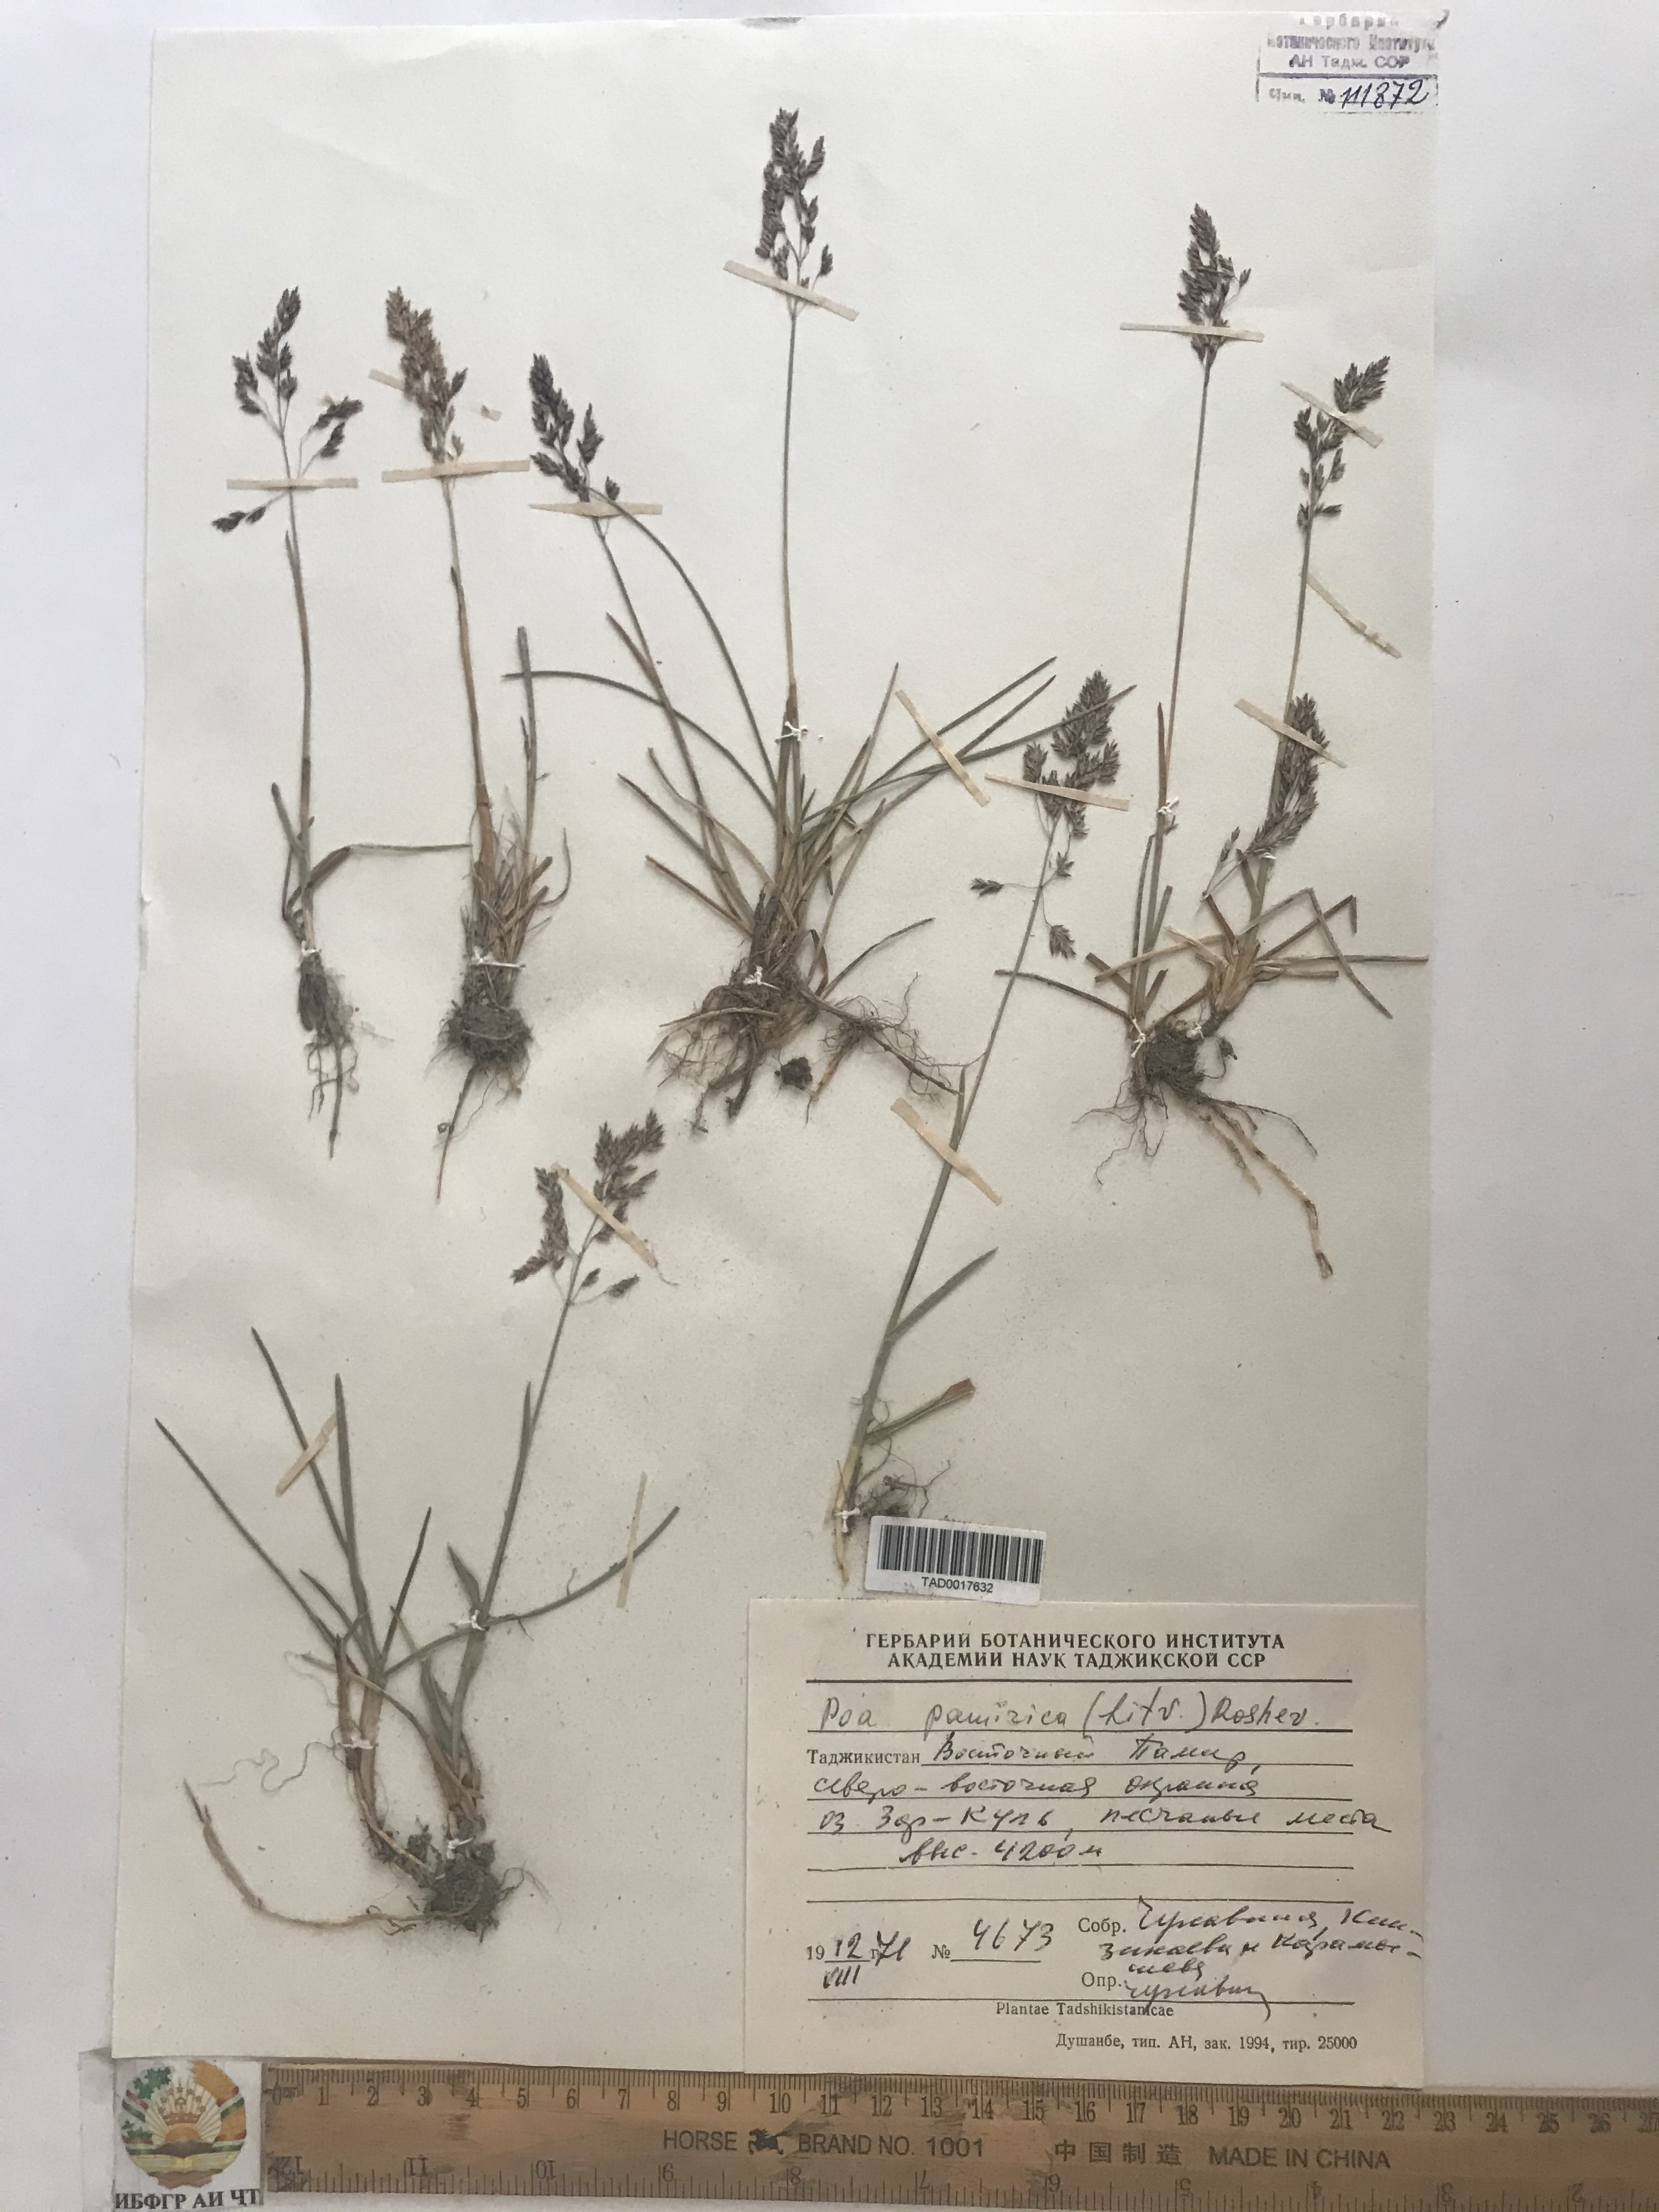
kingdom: Plantae
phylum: Tracheophyta
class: Liliopsida
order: Poales
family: Poaceae
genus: Poa
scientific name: Poa tianschanica
